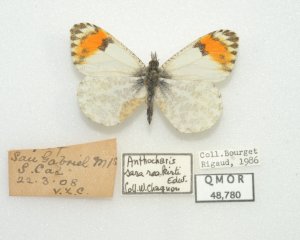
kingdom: Animalia
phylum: Arthropoda
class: Insecta
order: Lepidoptera
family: Pieridae
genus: Anthocharis
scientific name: Anthocharis sara
